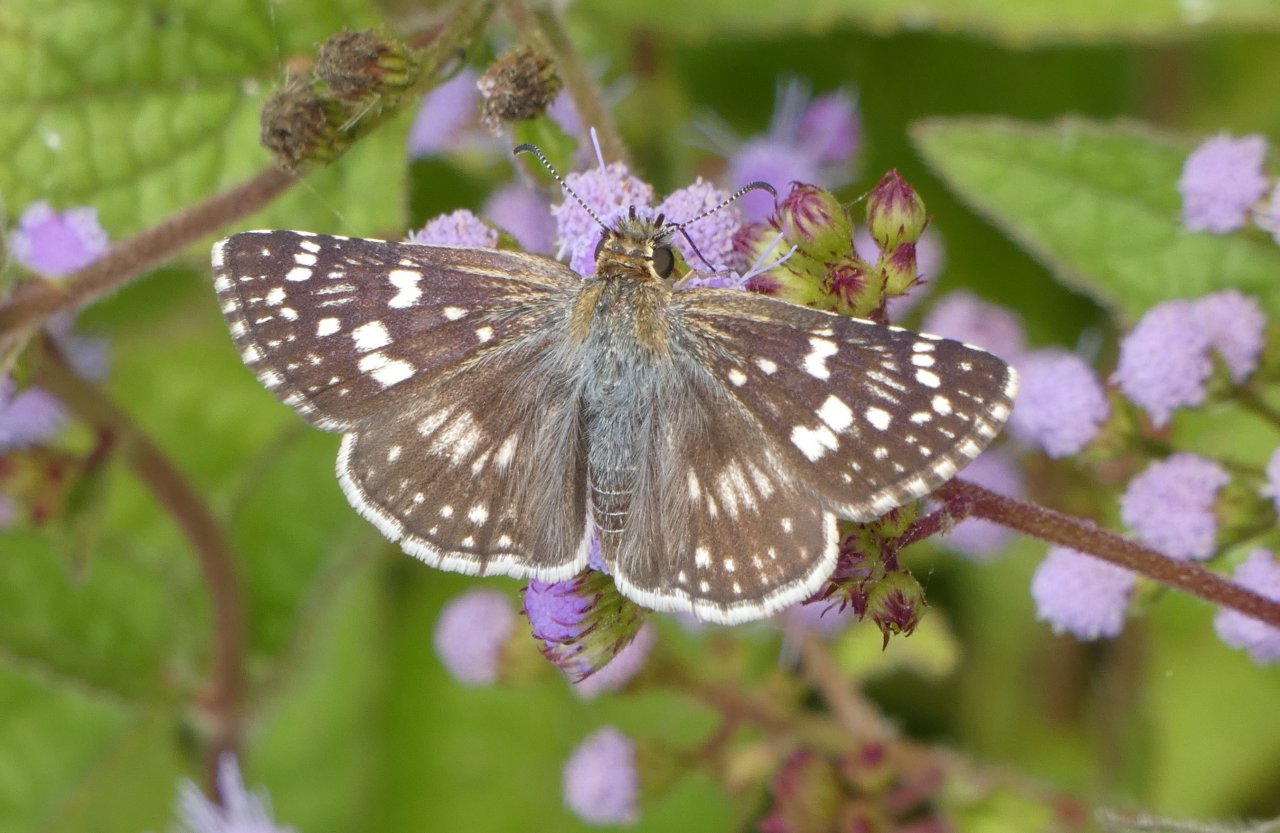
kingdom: Animalia
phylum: Arthropoda
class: Insecta
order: Lepidoptera
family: Hesperiidae
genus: Pyrgus
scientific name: Pyrgus communis
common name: Common Checkered-Skipper
